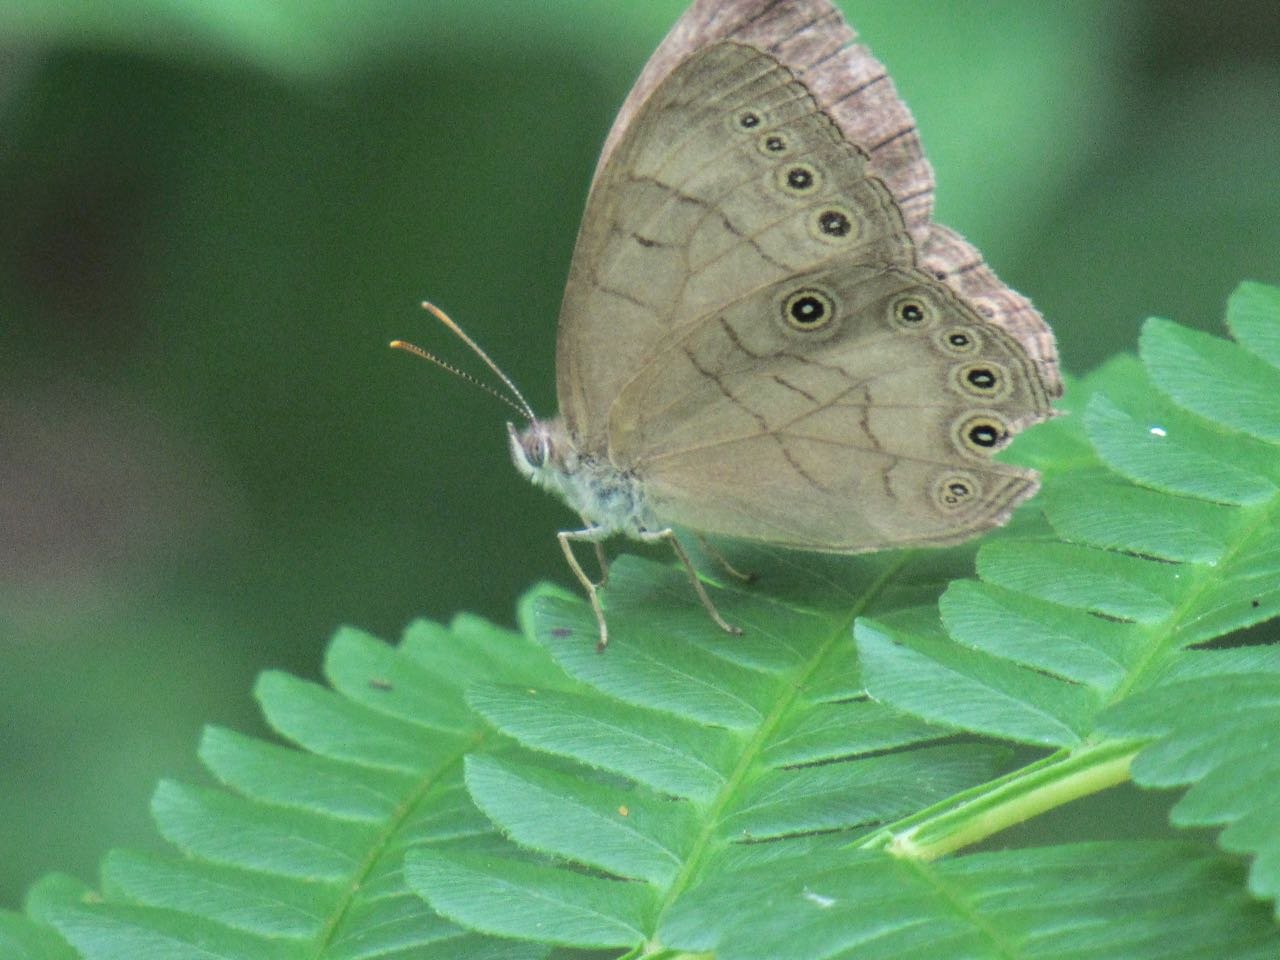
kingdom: Animalia
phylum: Arthropoda
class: Insecta
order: Lepidoptera
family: Nymphalidae
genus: Lethe
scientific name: Lethe eurydice
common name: Appalachian Eyed Brown
